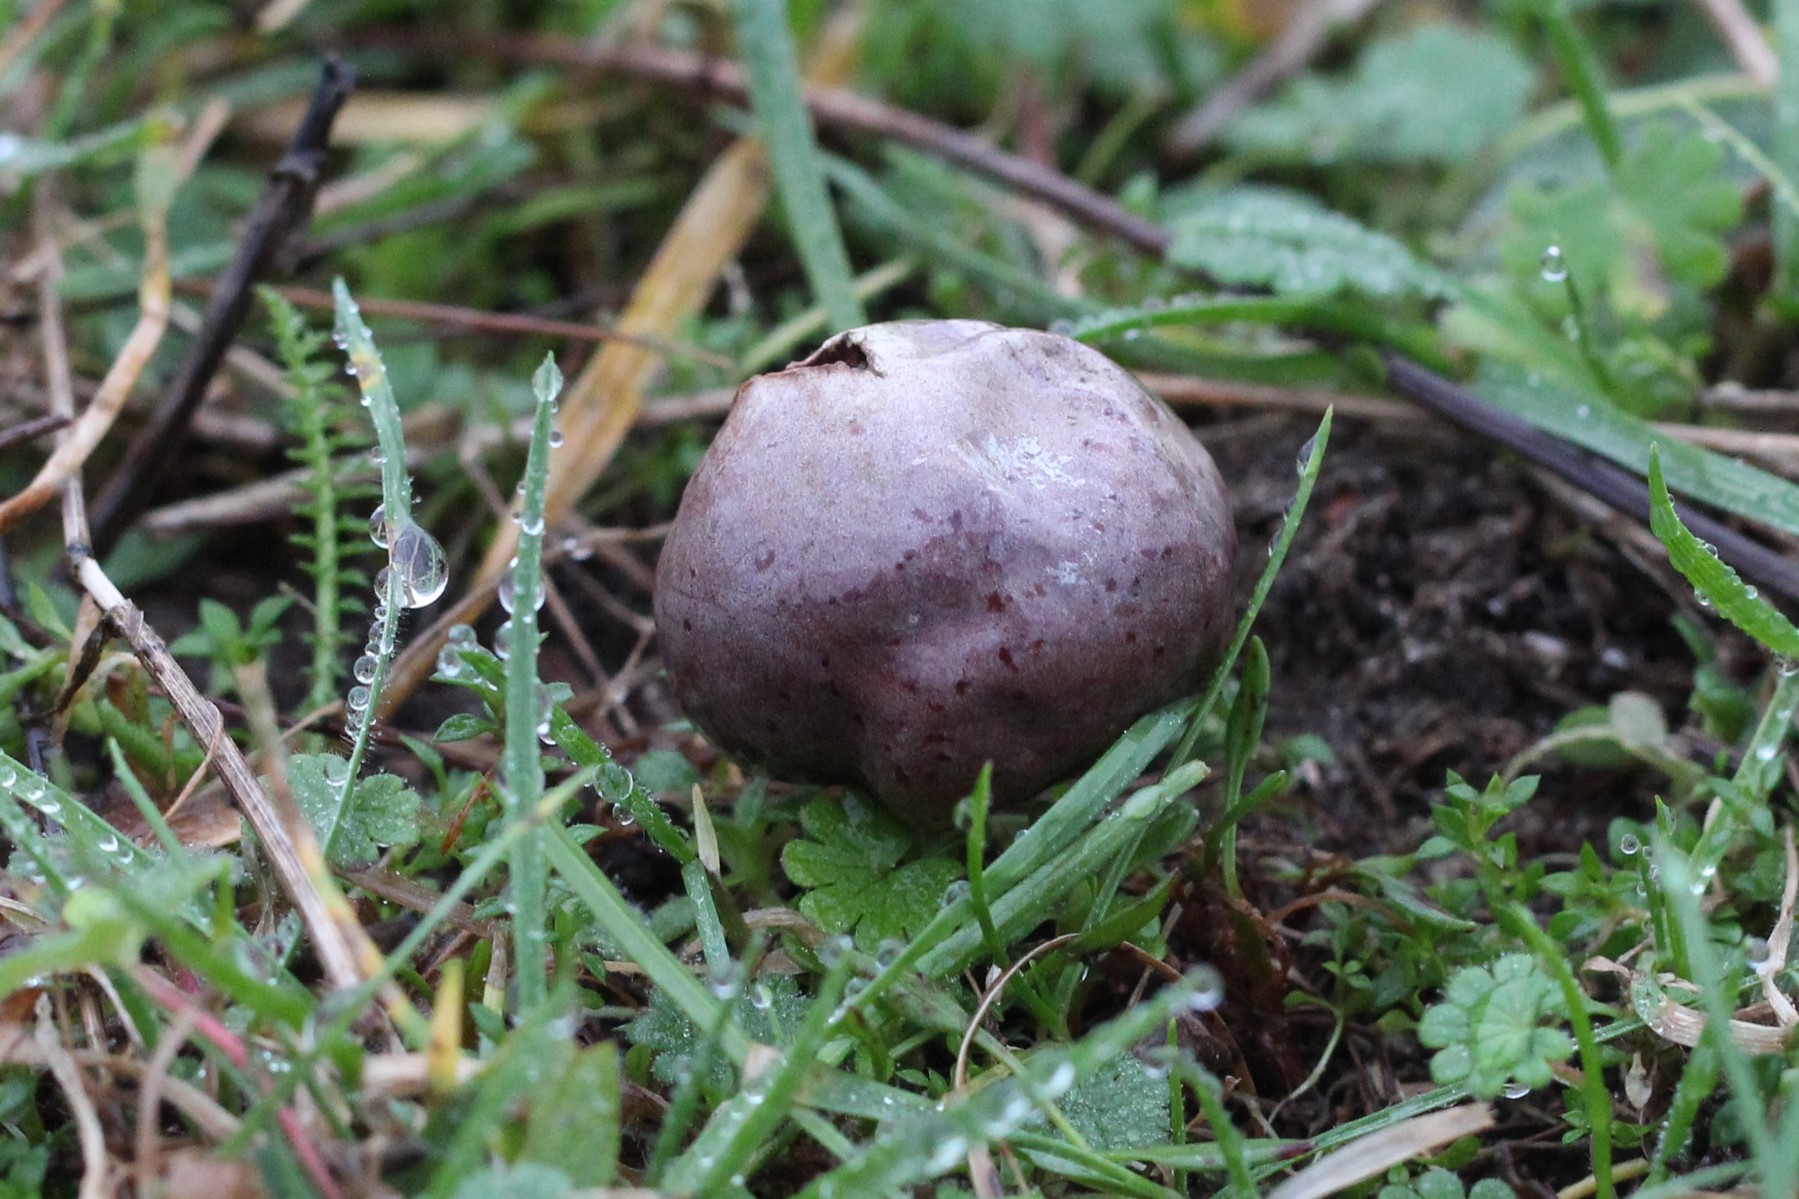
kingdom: Fungi
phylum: Basidiomycota
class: Agaricomycetes
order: Agaricales
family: Lycoperdaceae
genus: Bovista
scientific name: Bovista plumbea
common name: blygrå bovist
